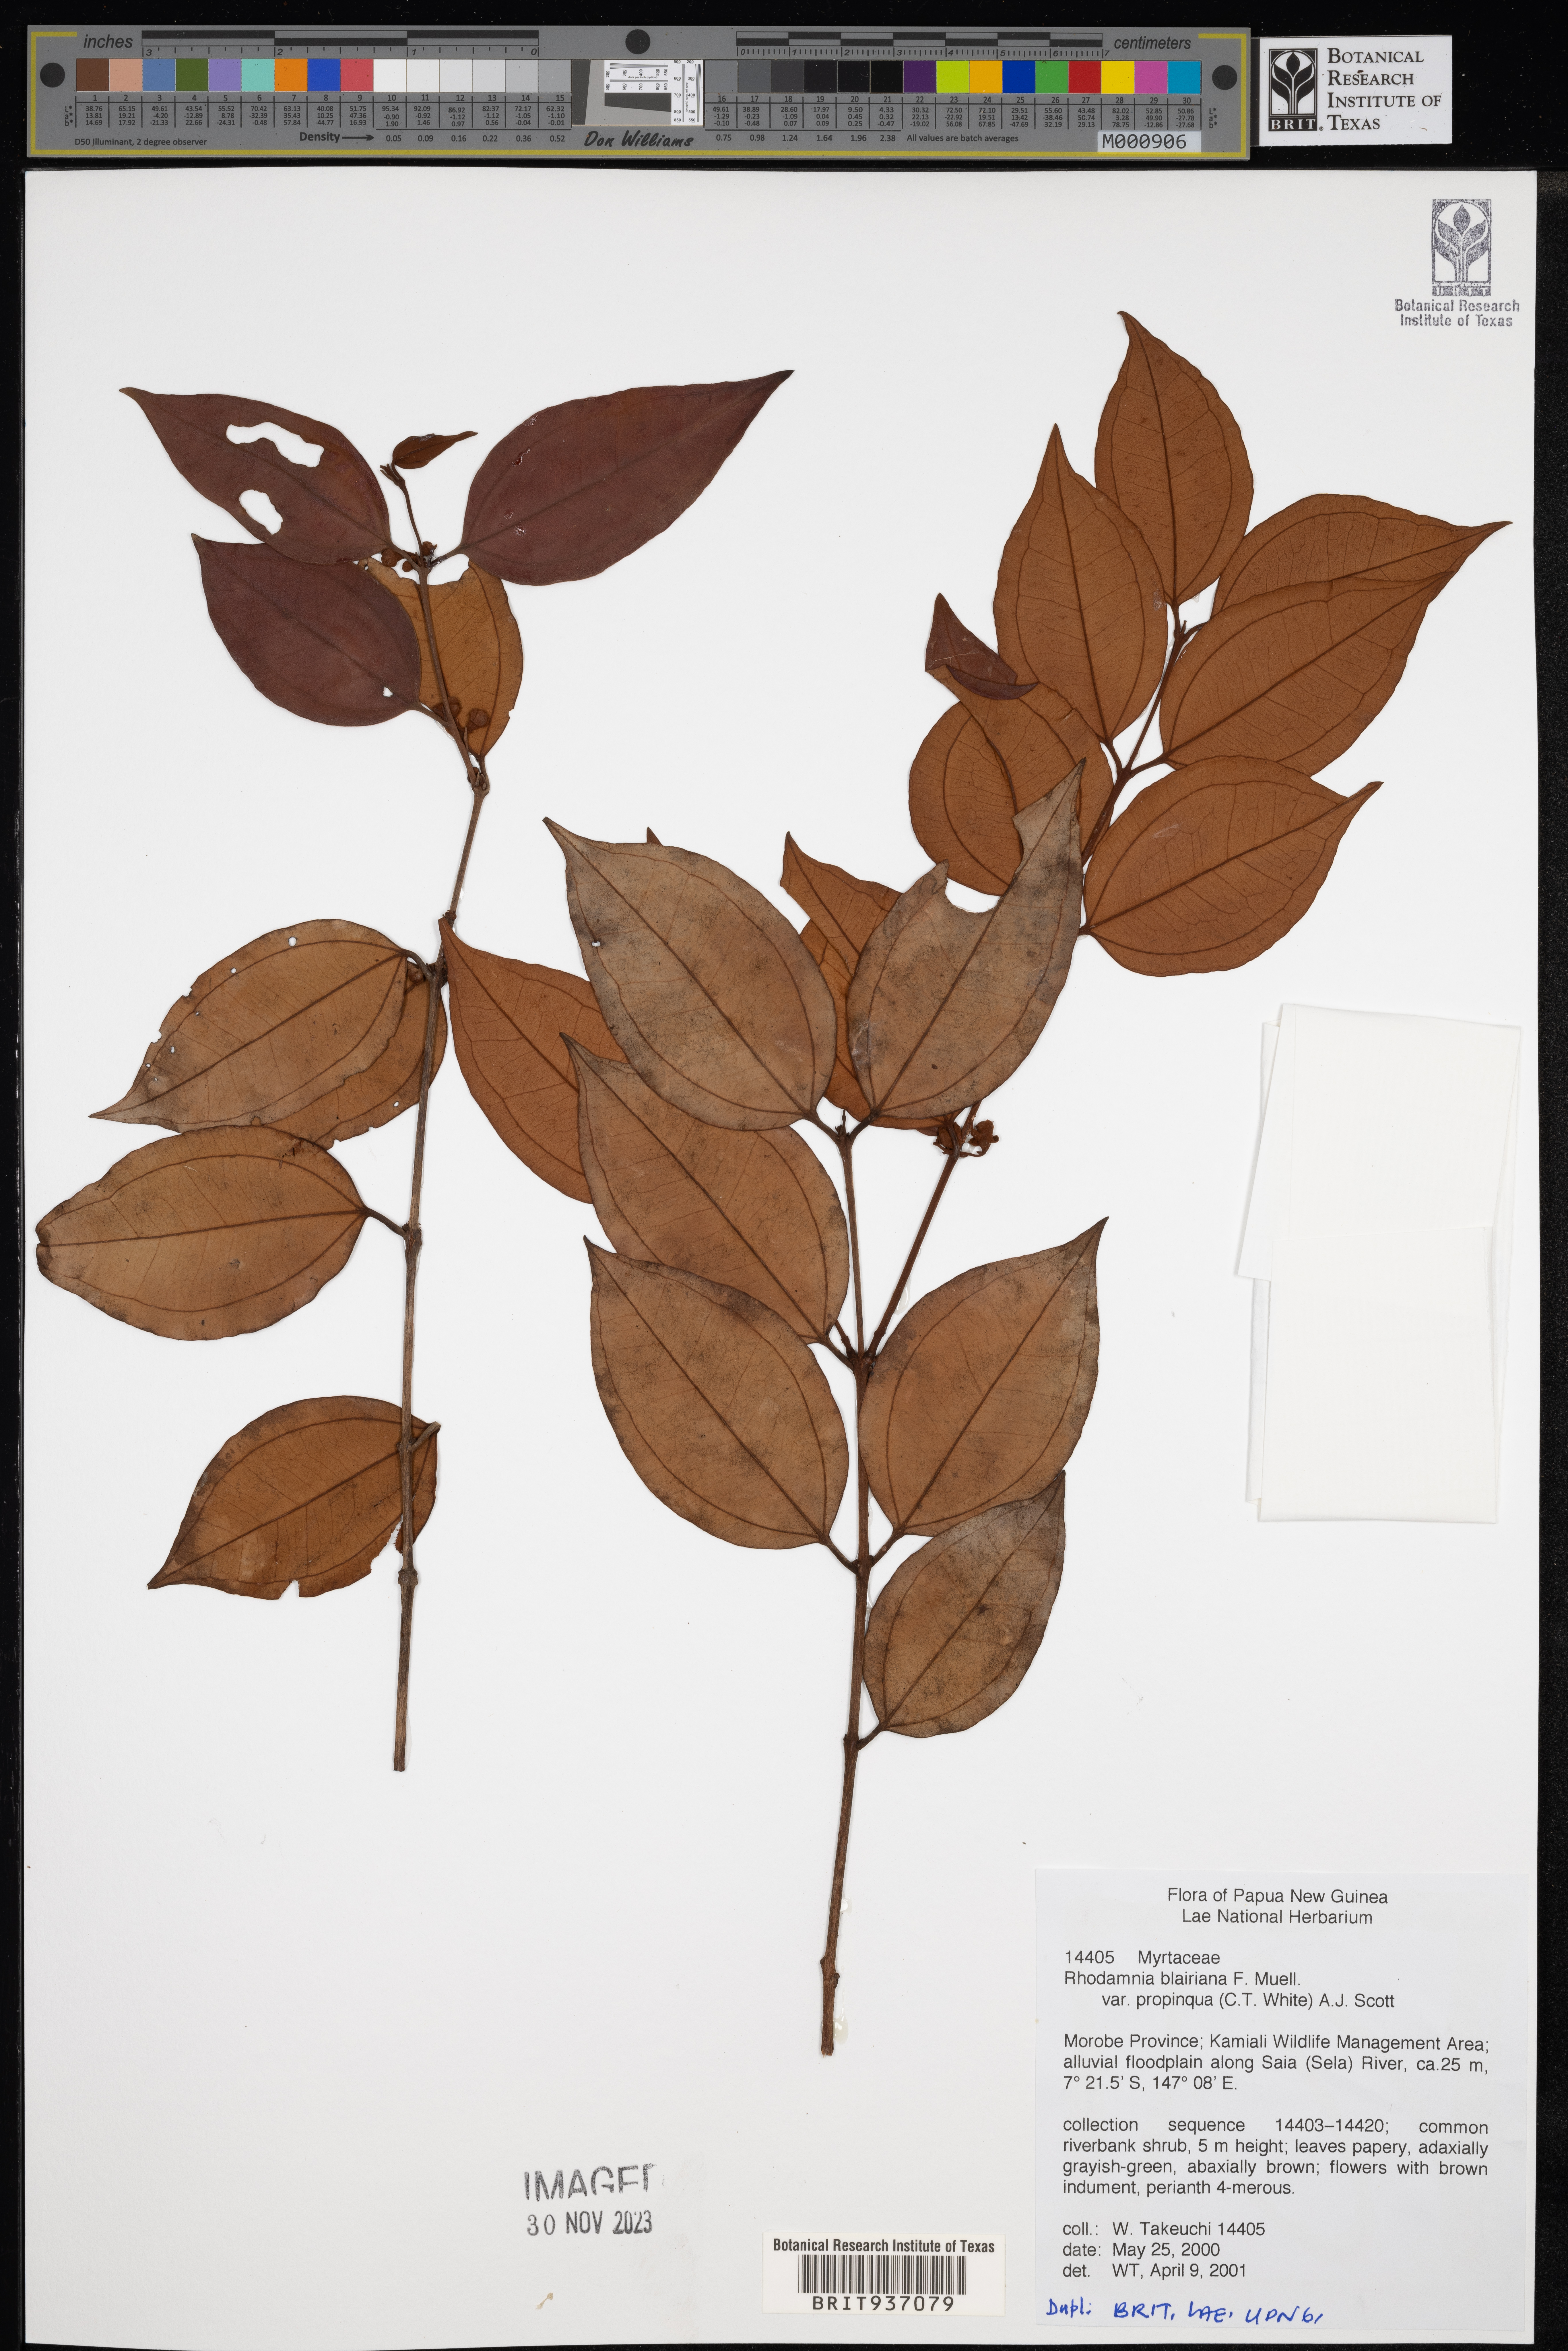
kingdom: Plantae
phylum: Tracheophyta
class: Magnoliopsida
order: Myrtales
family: Myrtaceae
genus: Rhodamnia
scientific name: Rhodamnia
